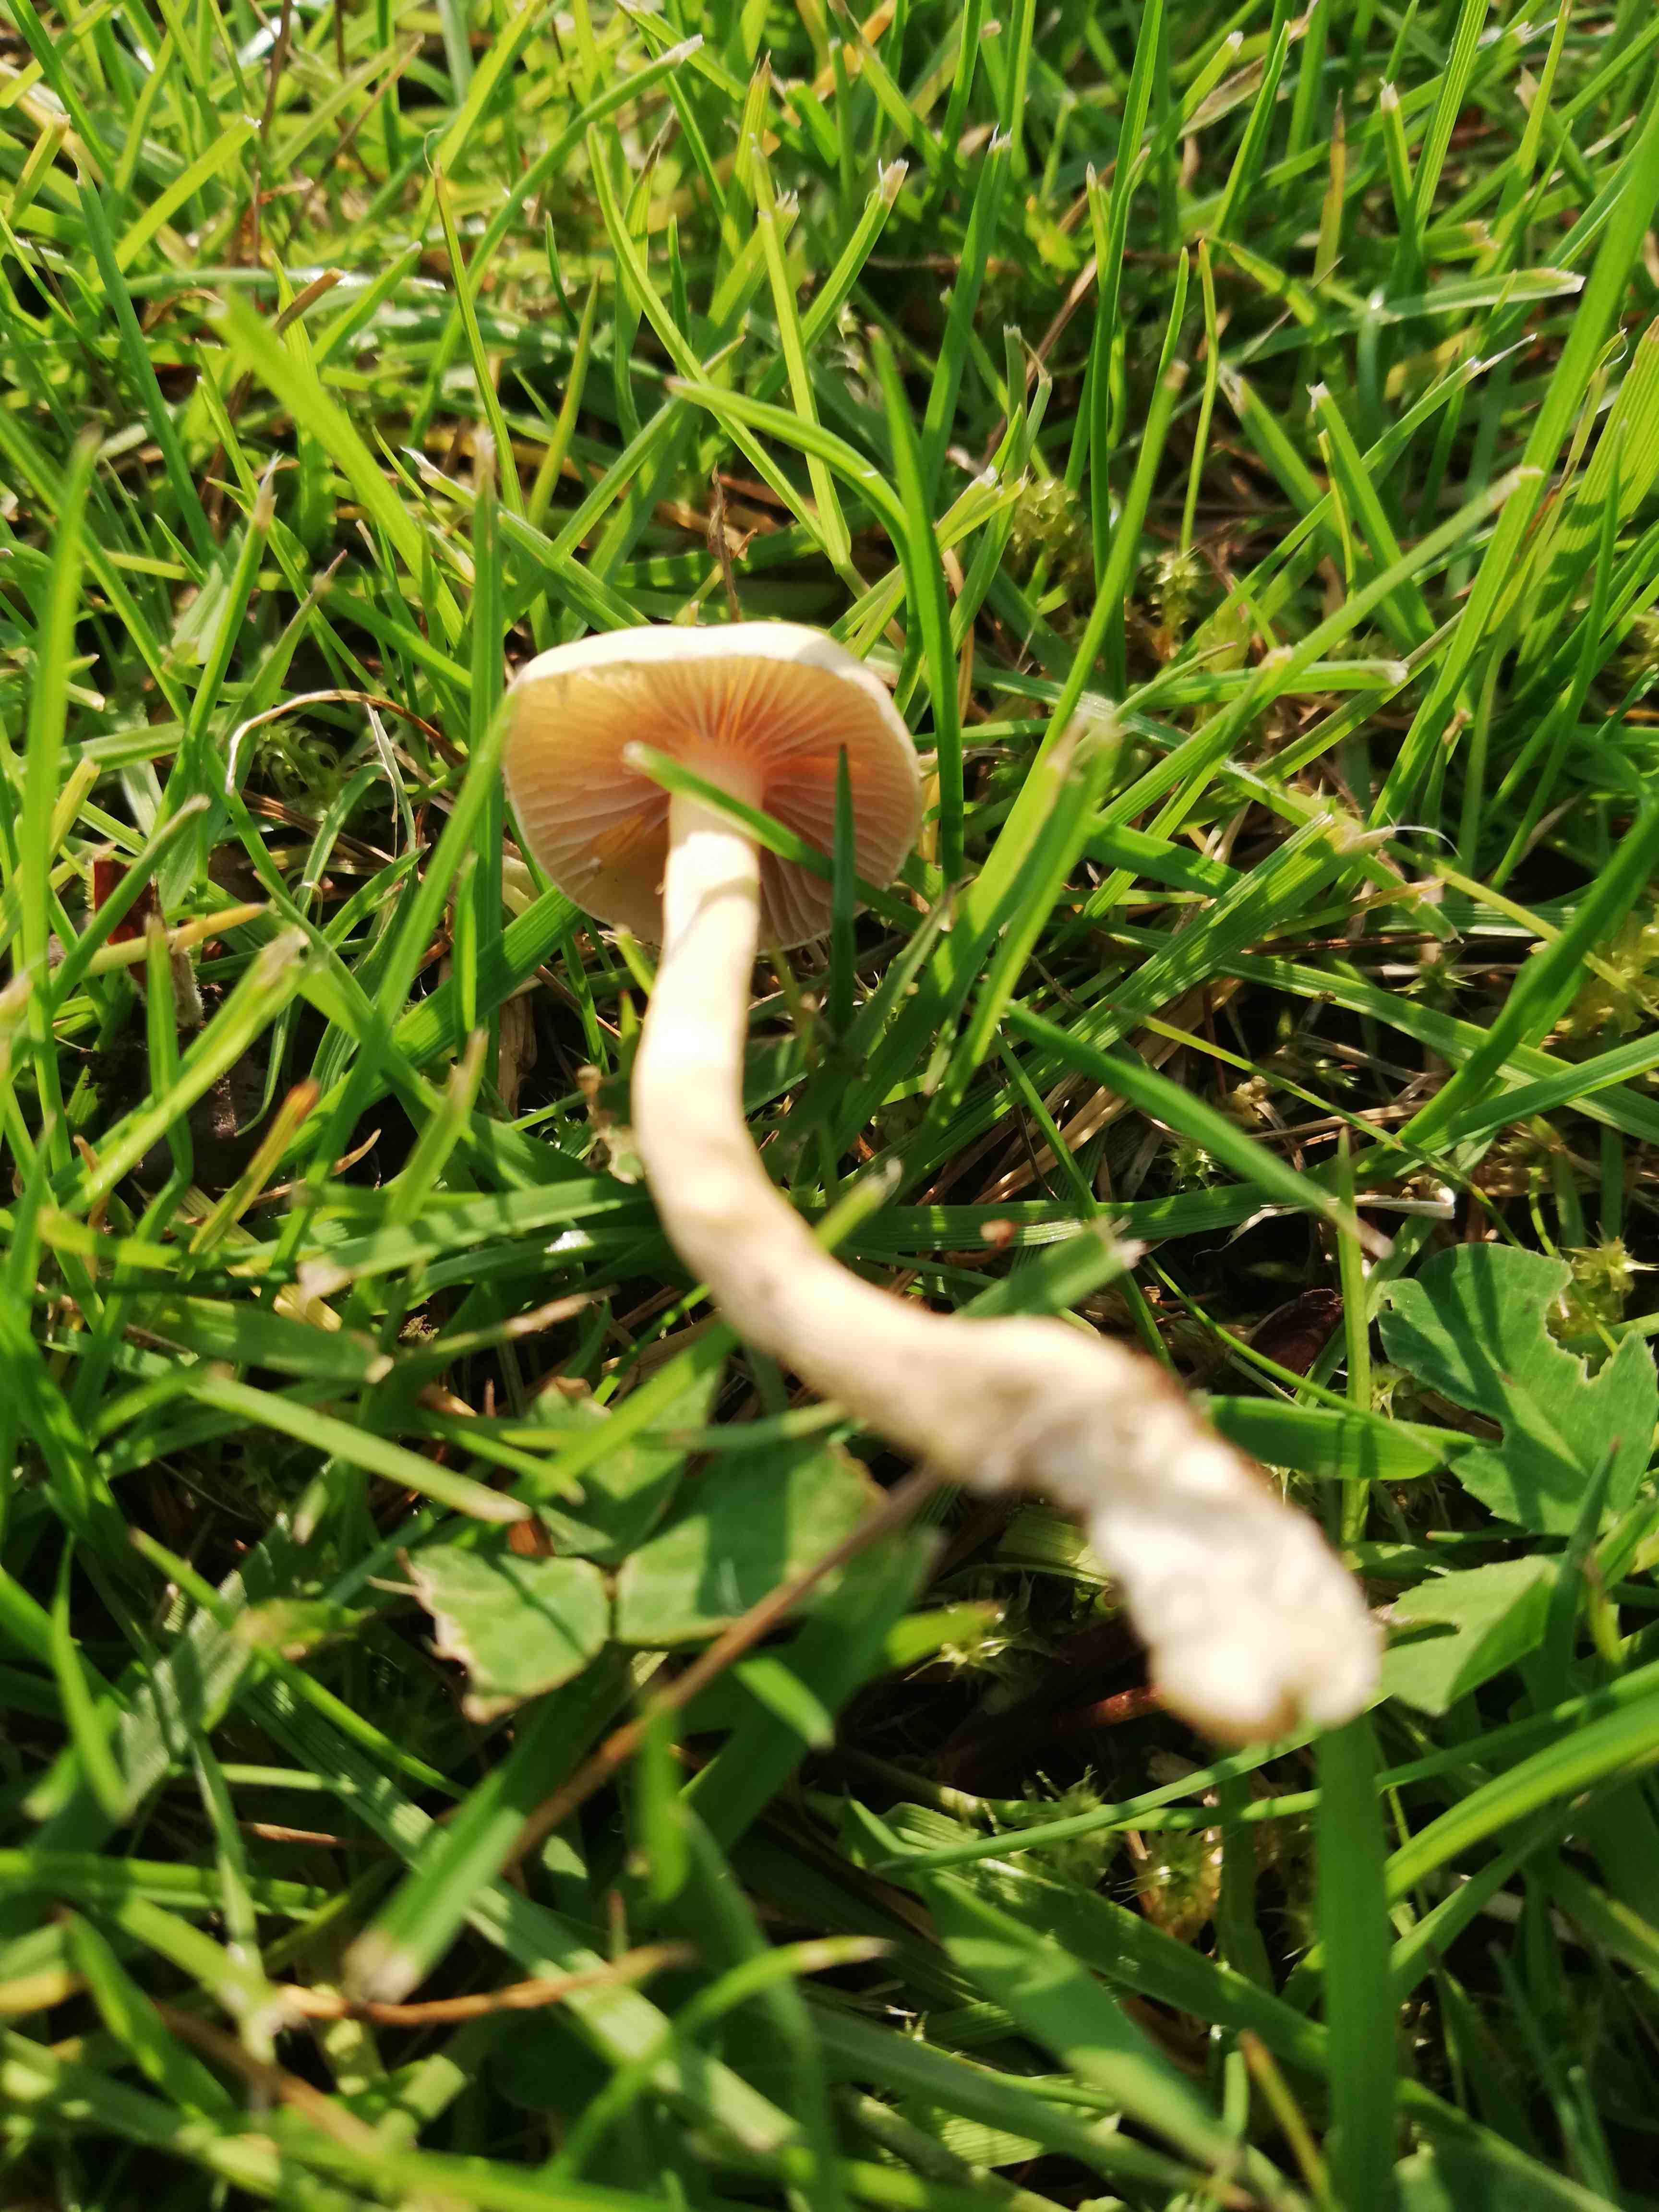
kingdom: Fungi
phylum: Basidiomycota
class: Agaricomycetes
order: Agaricales
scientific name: Agaricales
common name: champignonordenen
